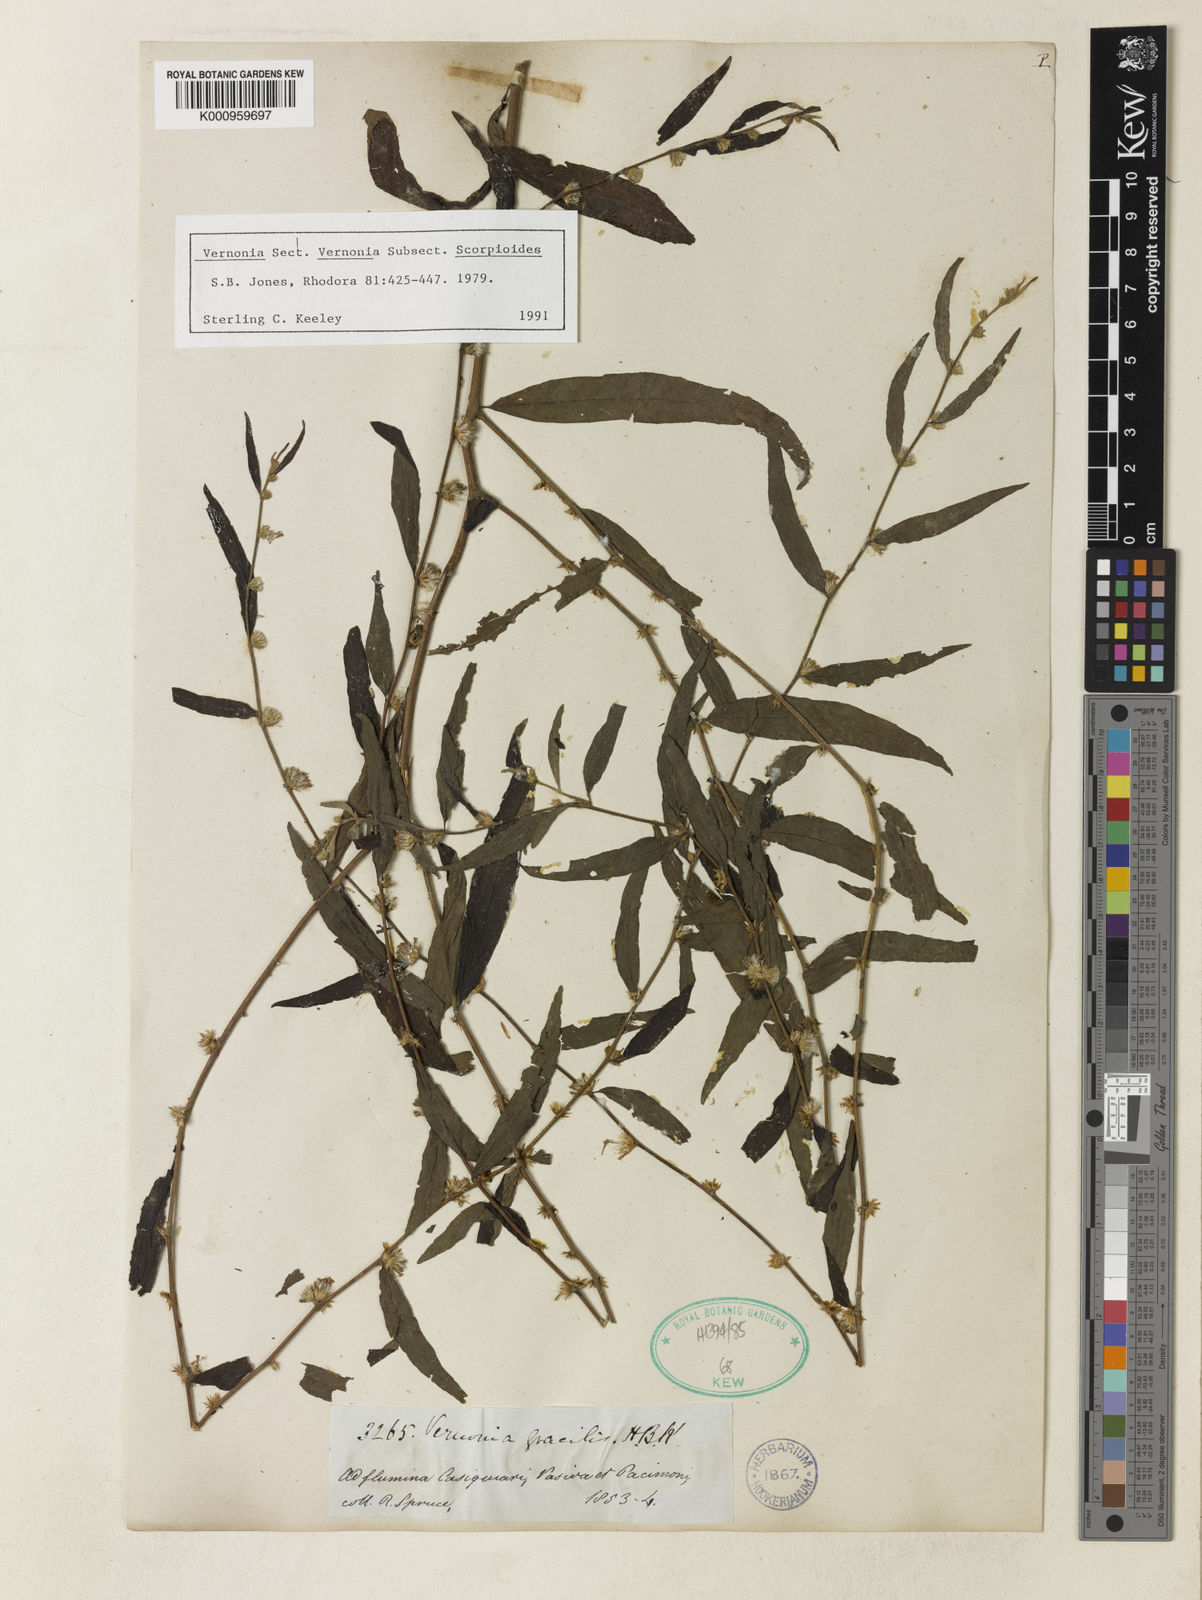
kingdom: Plantae
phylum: Tracheophyta
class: Magnoliopsida
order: Asterales
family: Asteraceae
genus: Lepidaploa
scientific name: Lepidaploa gracilis
